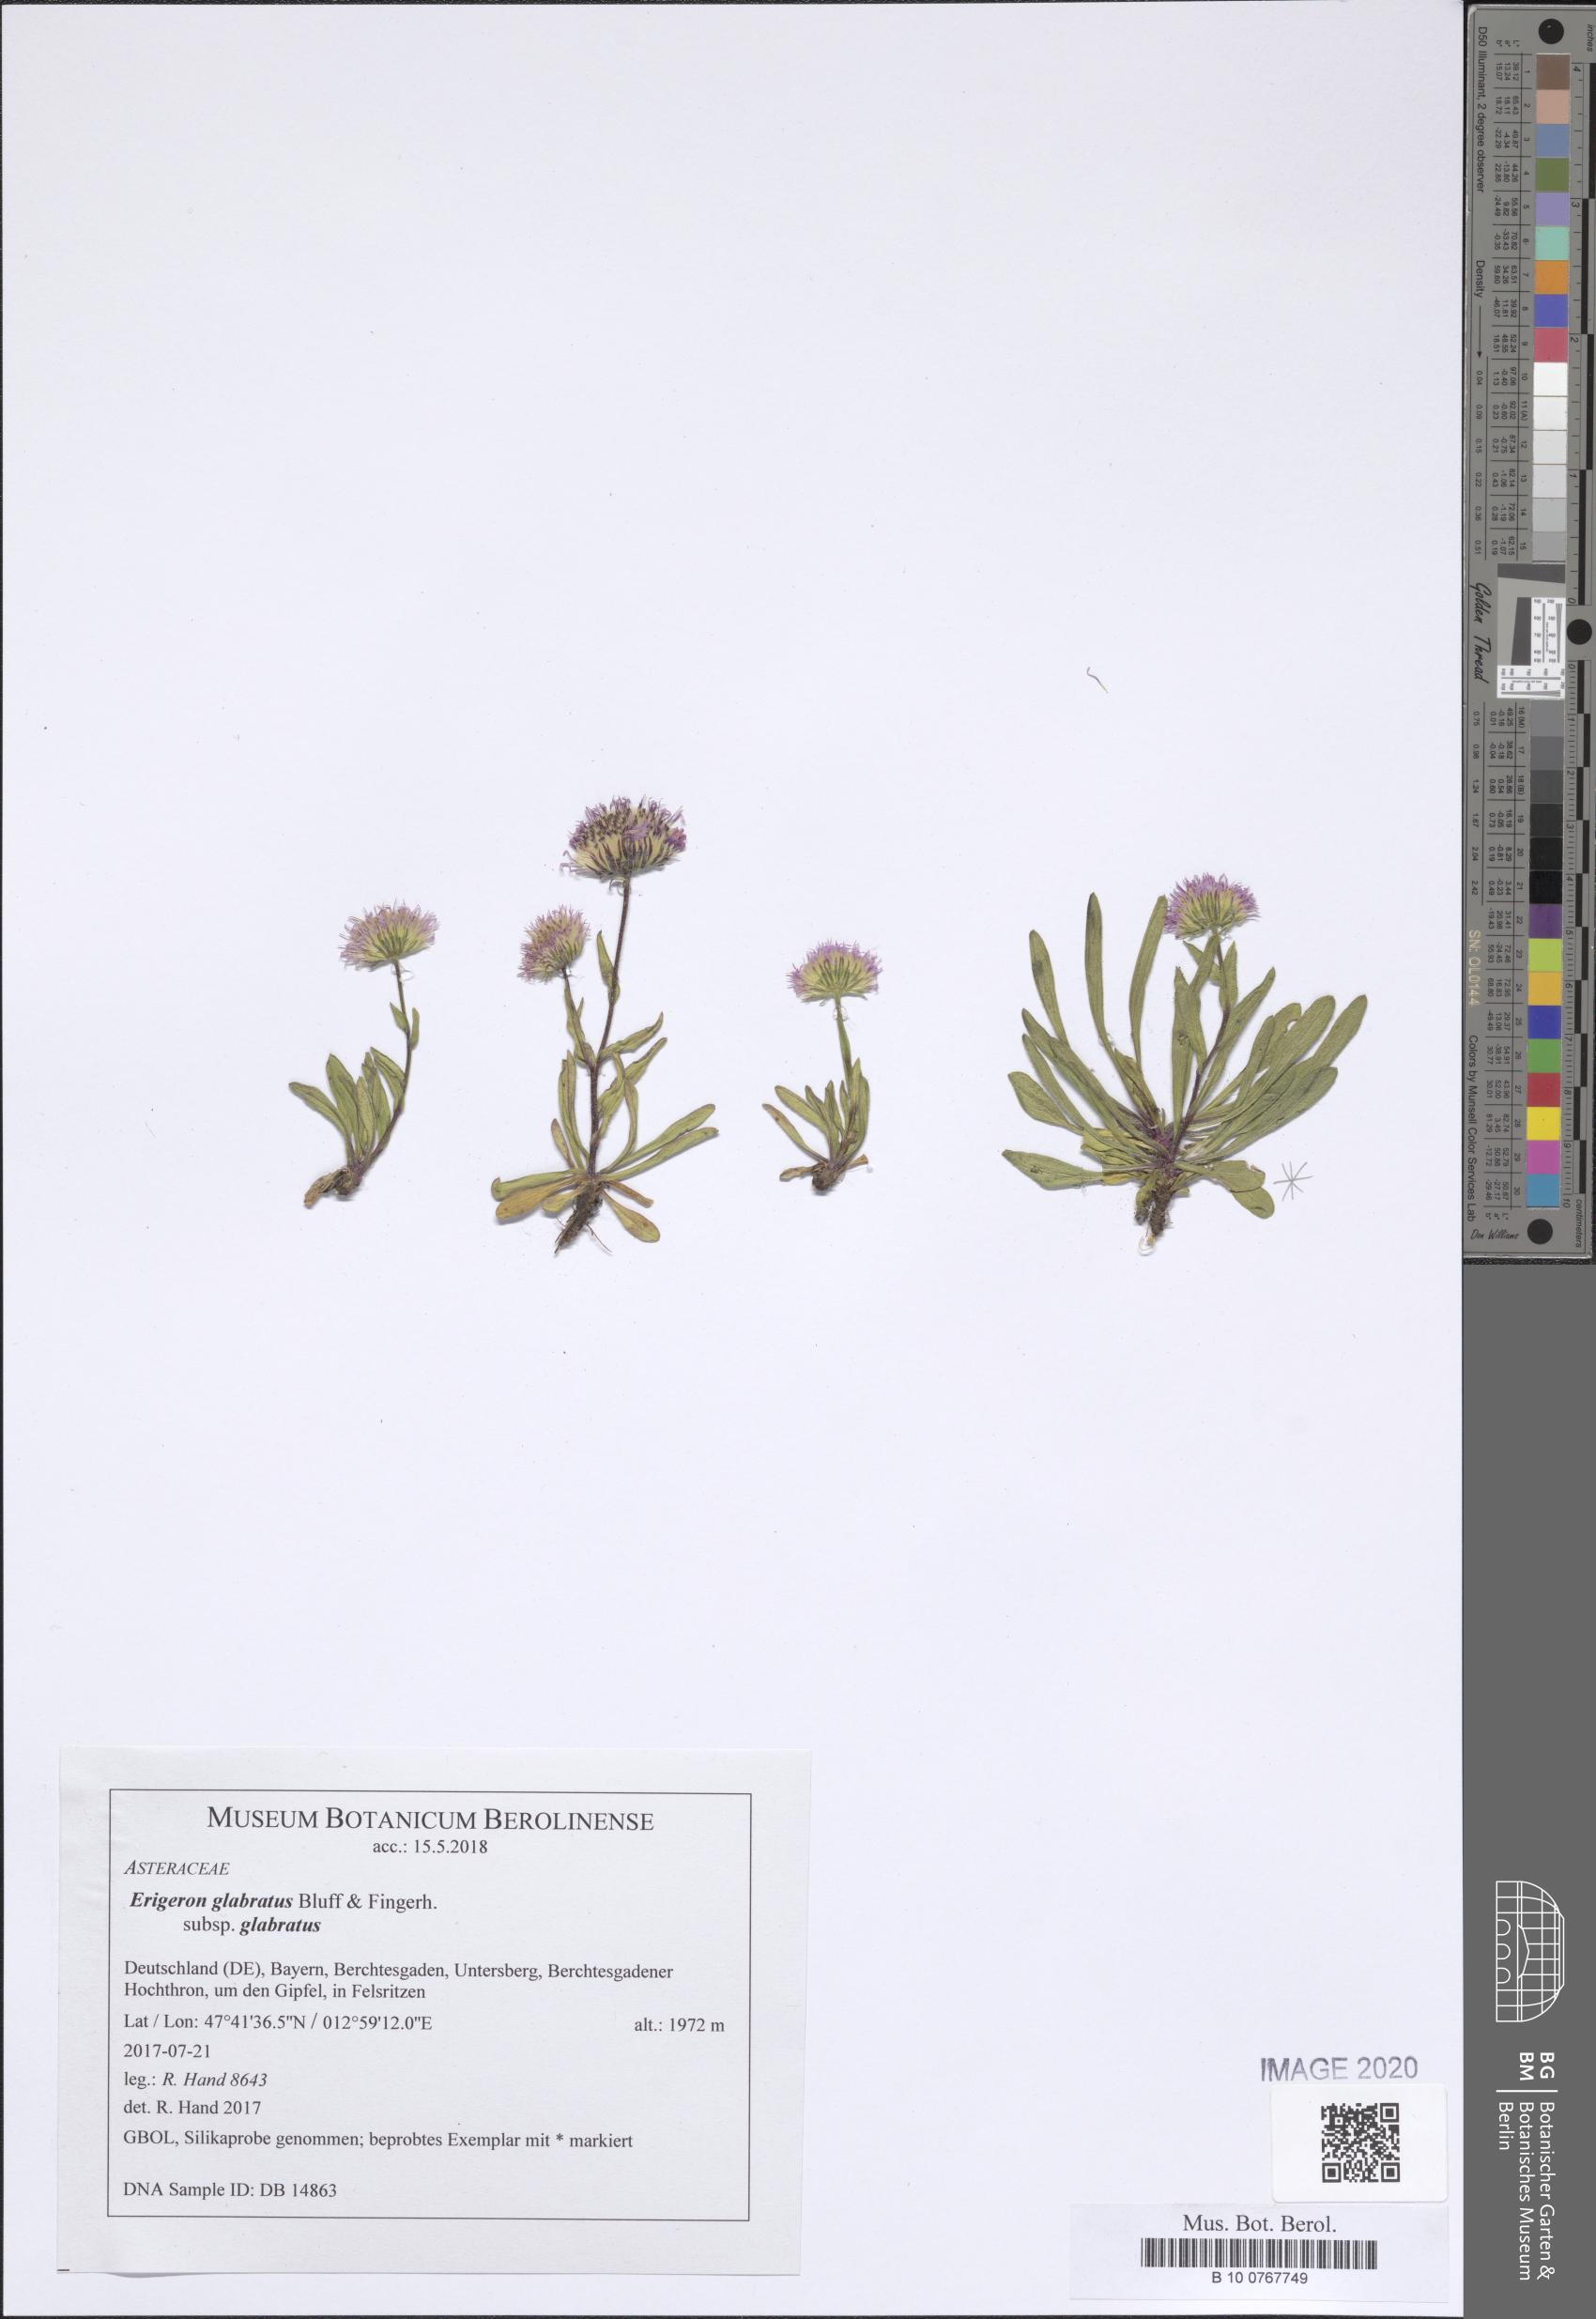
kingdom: Plantae
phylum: Tracheophyta
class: Magnoliopsida
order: Asterales
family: Asteraceae
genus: Erigeron
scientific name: Erigeron glabratus
